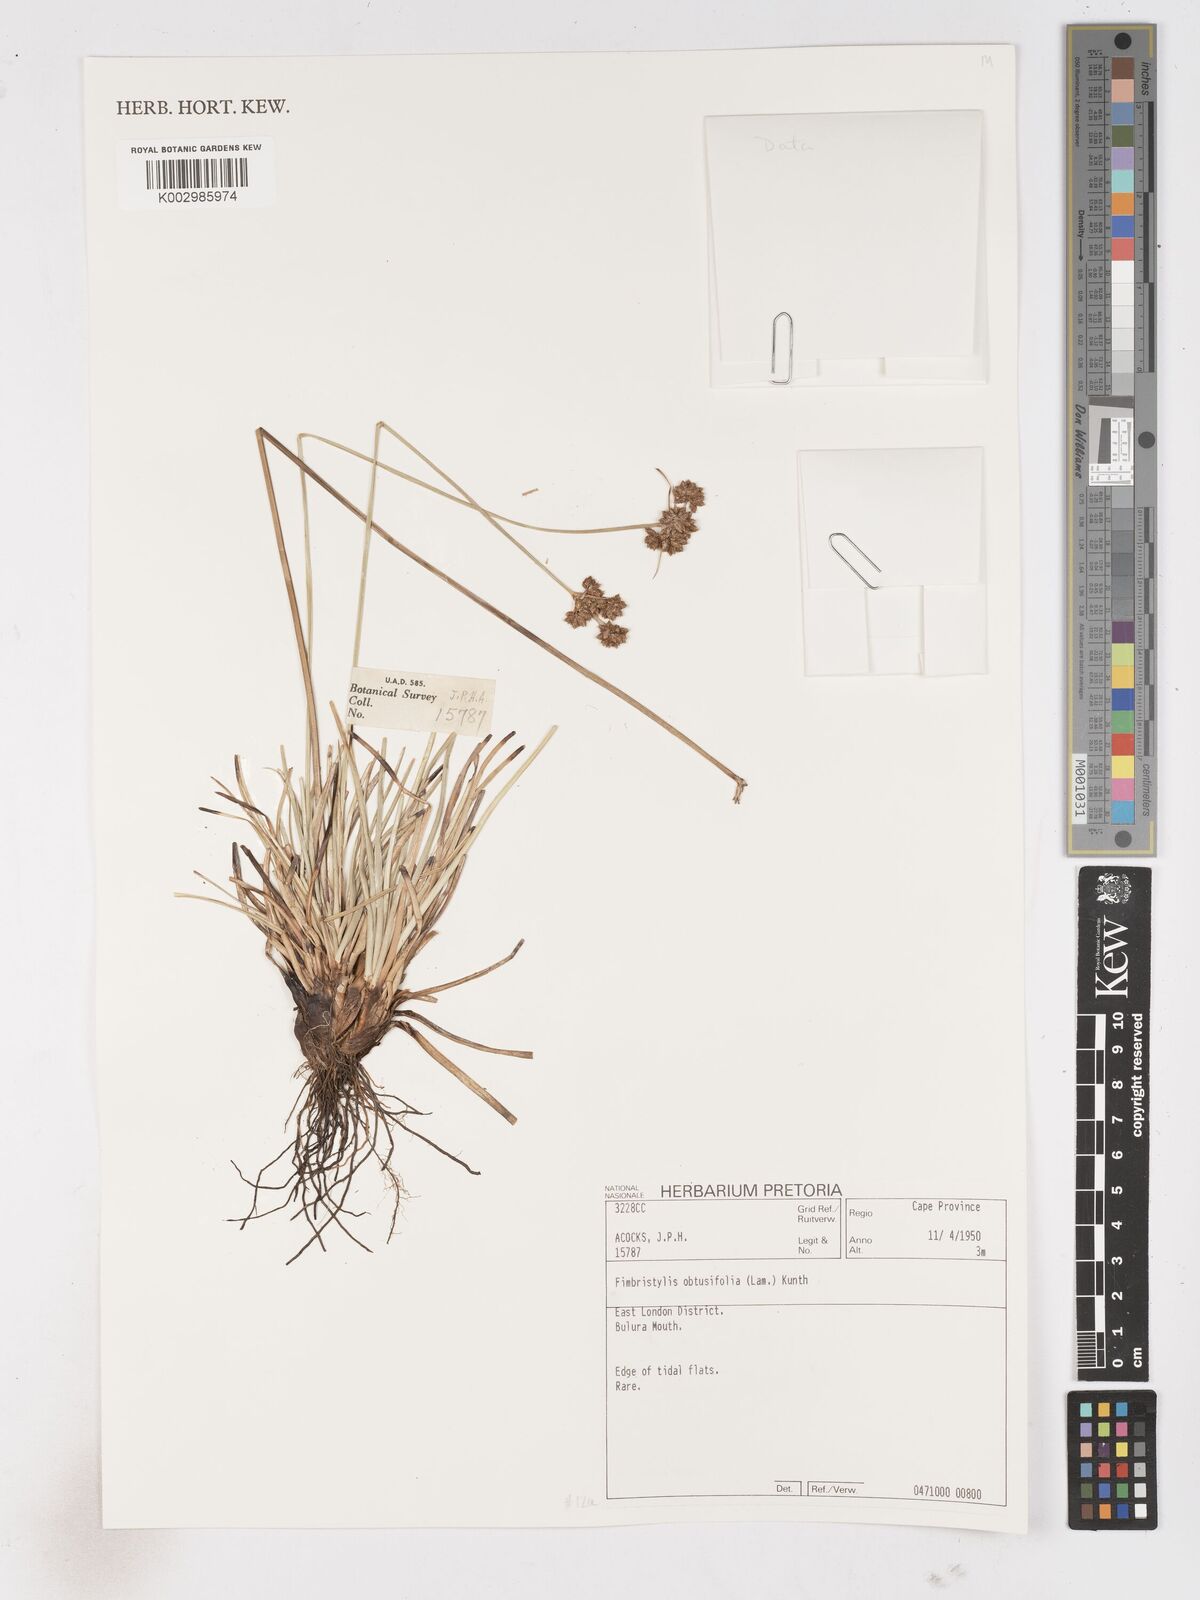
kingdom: Plantae
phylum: Tracheophyta
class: Liliopsida
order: Poales
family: Cyperaceae
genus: Fimbristylis
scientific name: Fimbristylis cymosa
